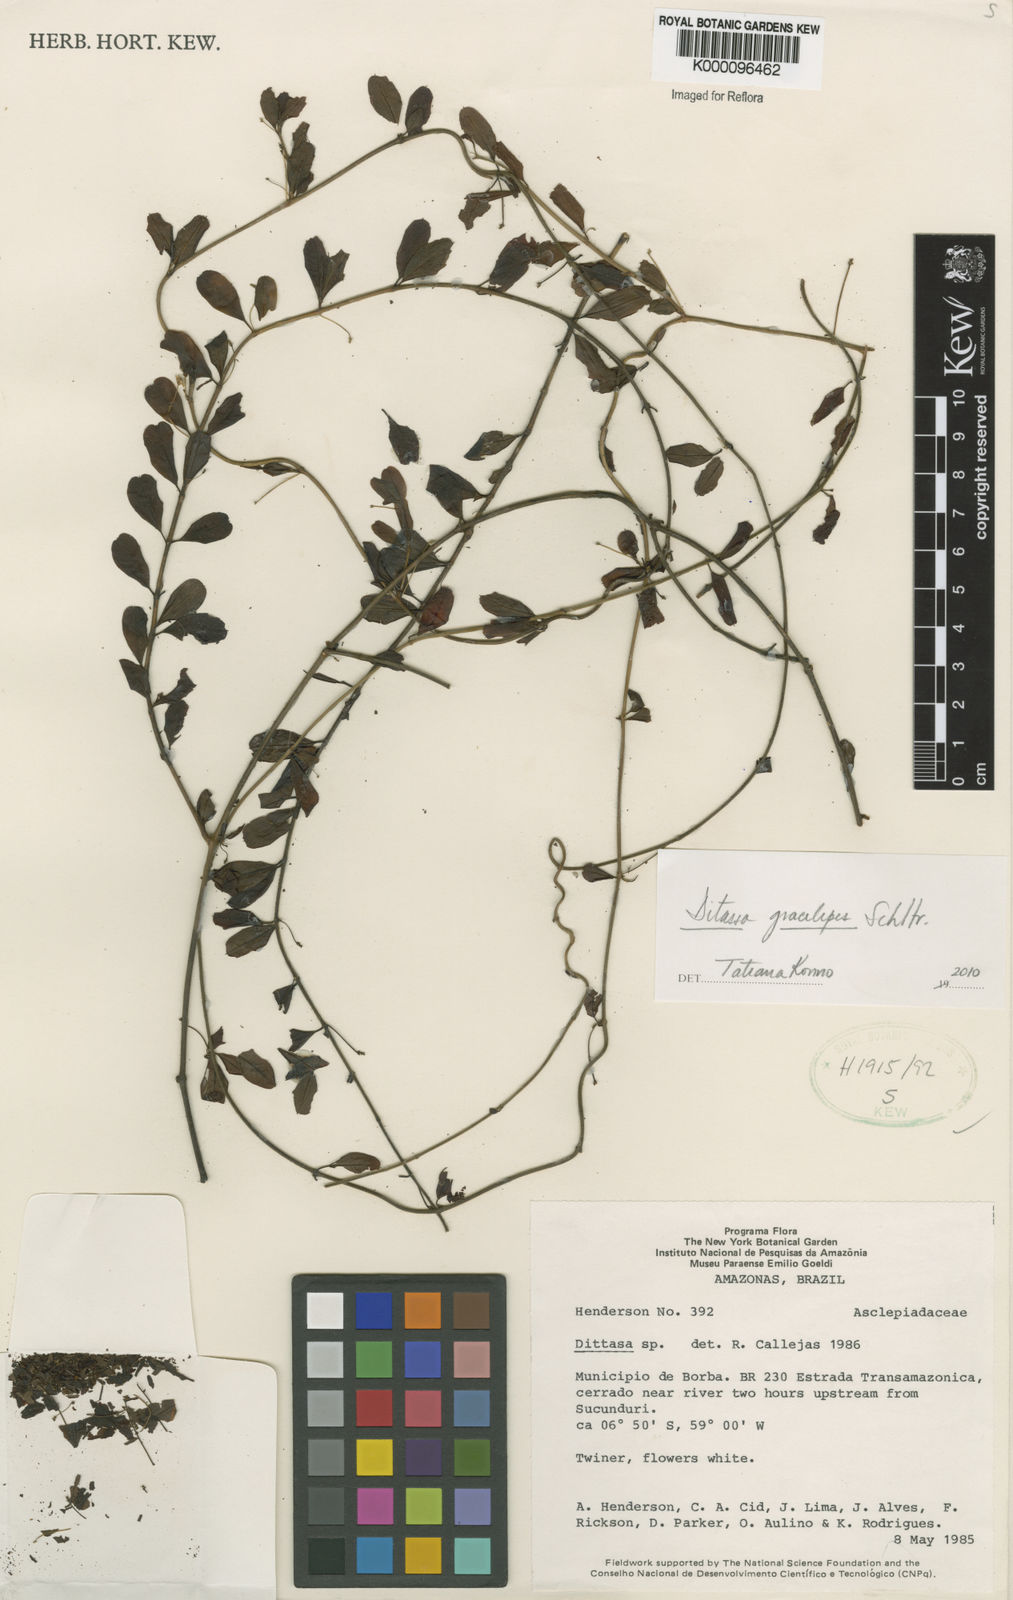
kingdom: Plantae
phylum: Tracheophyta
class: Magnoliopsida
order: Gentianales
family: Apocynaceae
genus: Ditassa
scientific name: Ditassa gracilipes
